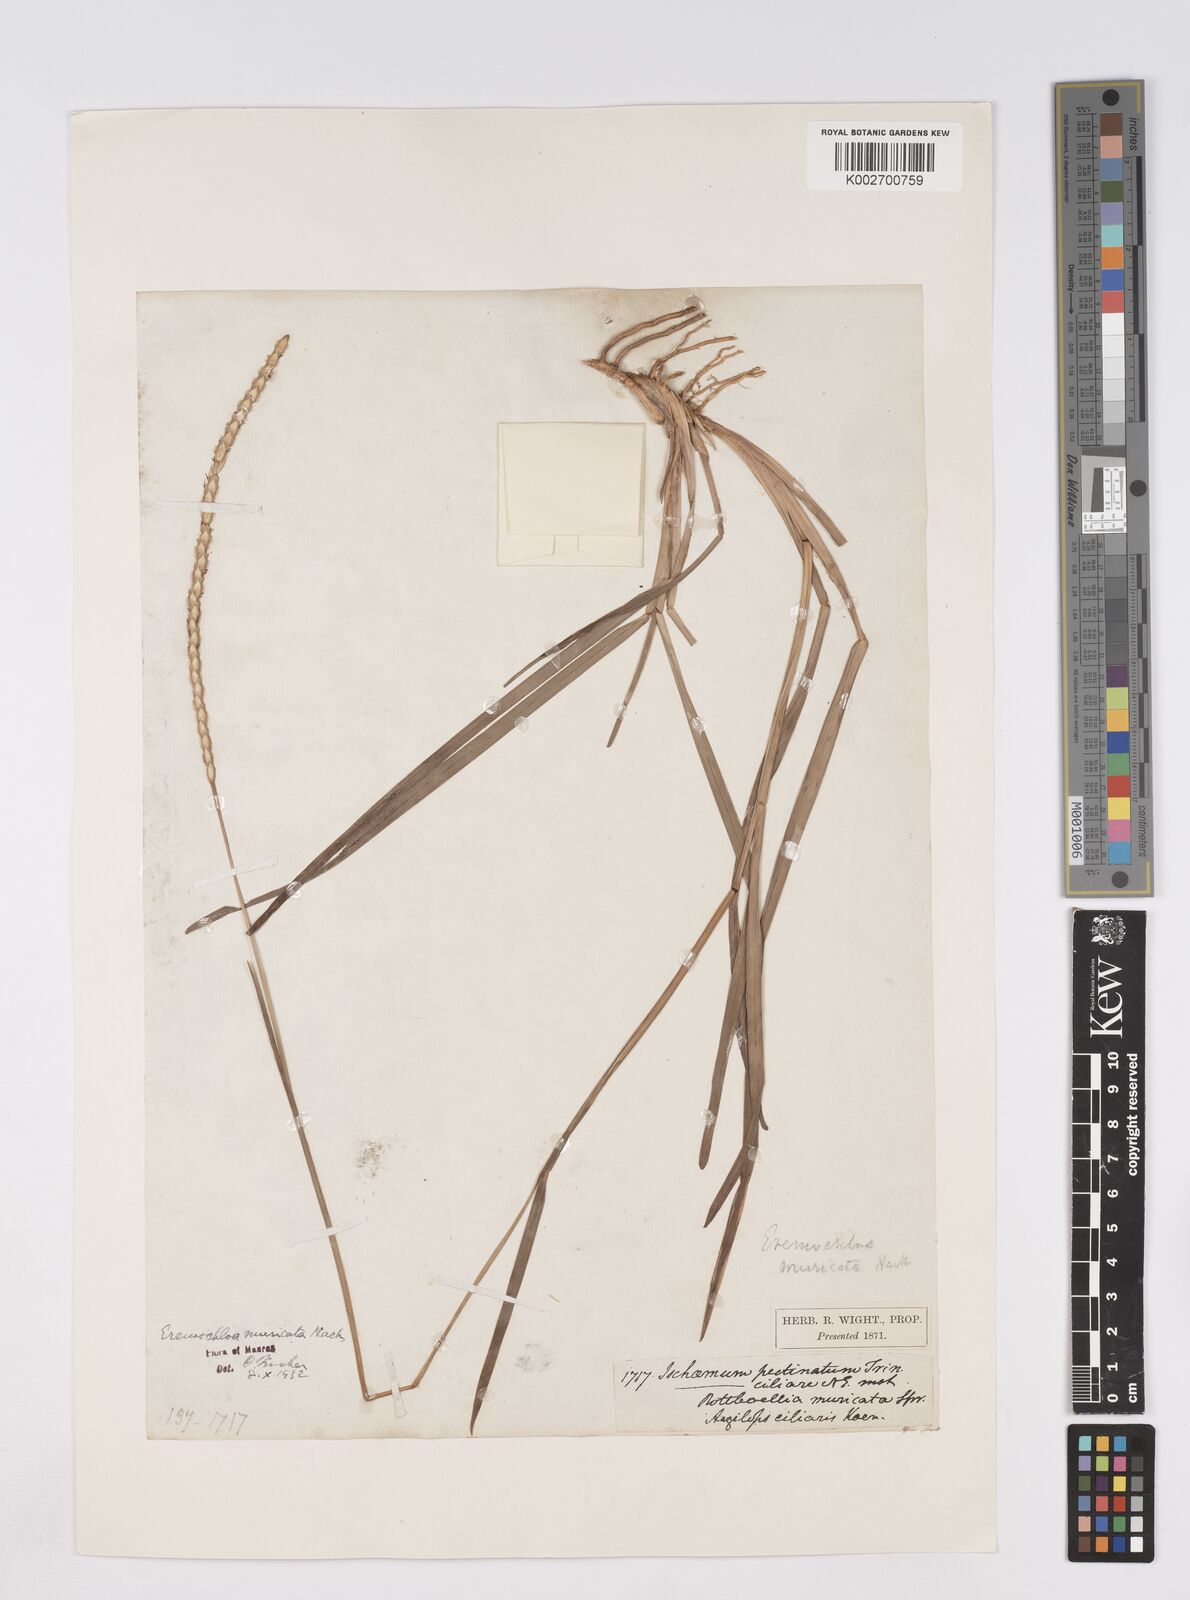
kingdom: Plantae
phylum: Tracheophyta
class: Liliopsida
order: Poales
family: Poaceae
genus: Eremochloa
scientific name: Eremochloa muricata
